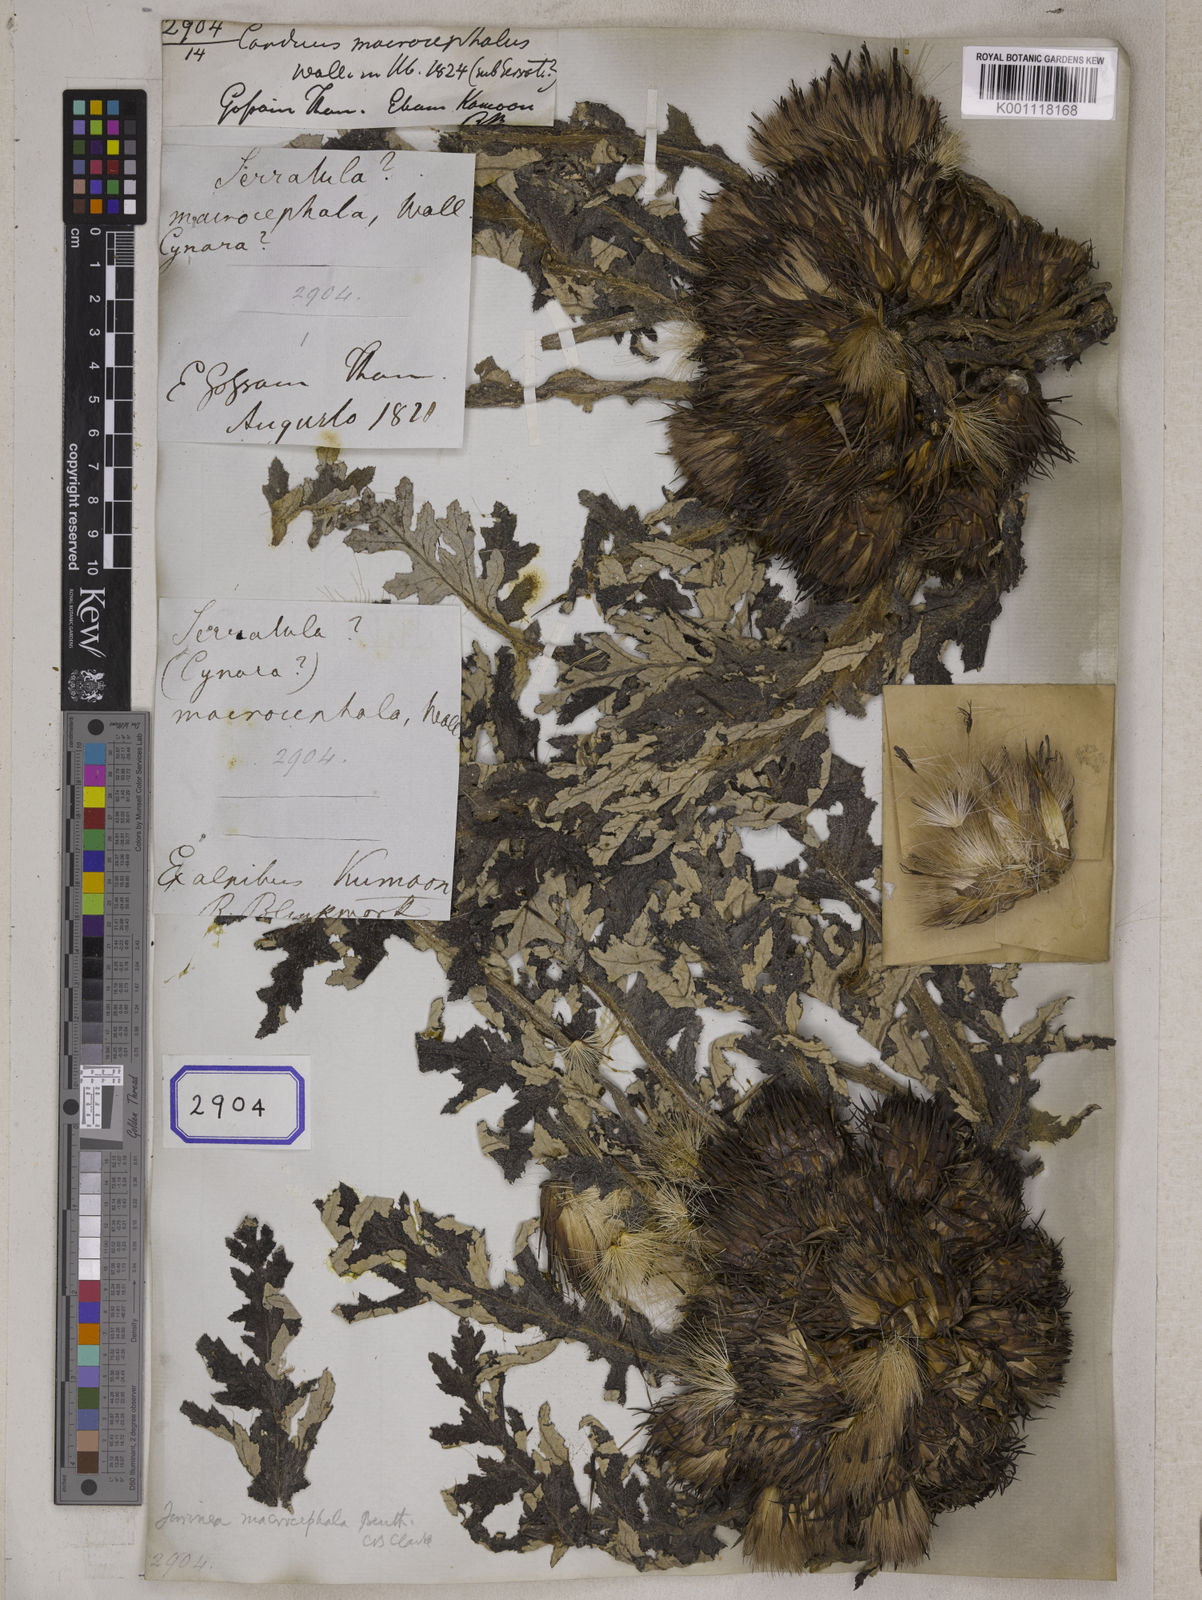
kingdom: Plantae
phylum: Tracheophyta
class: Magnoliopsida
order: Asterales
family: Asteraceae
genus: Carduus
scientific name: Carduus
